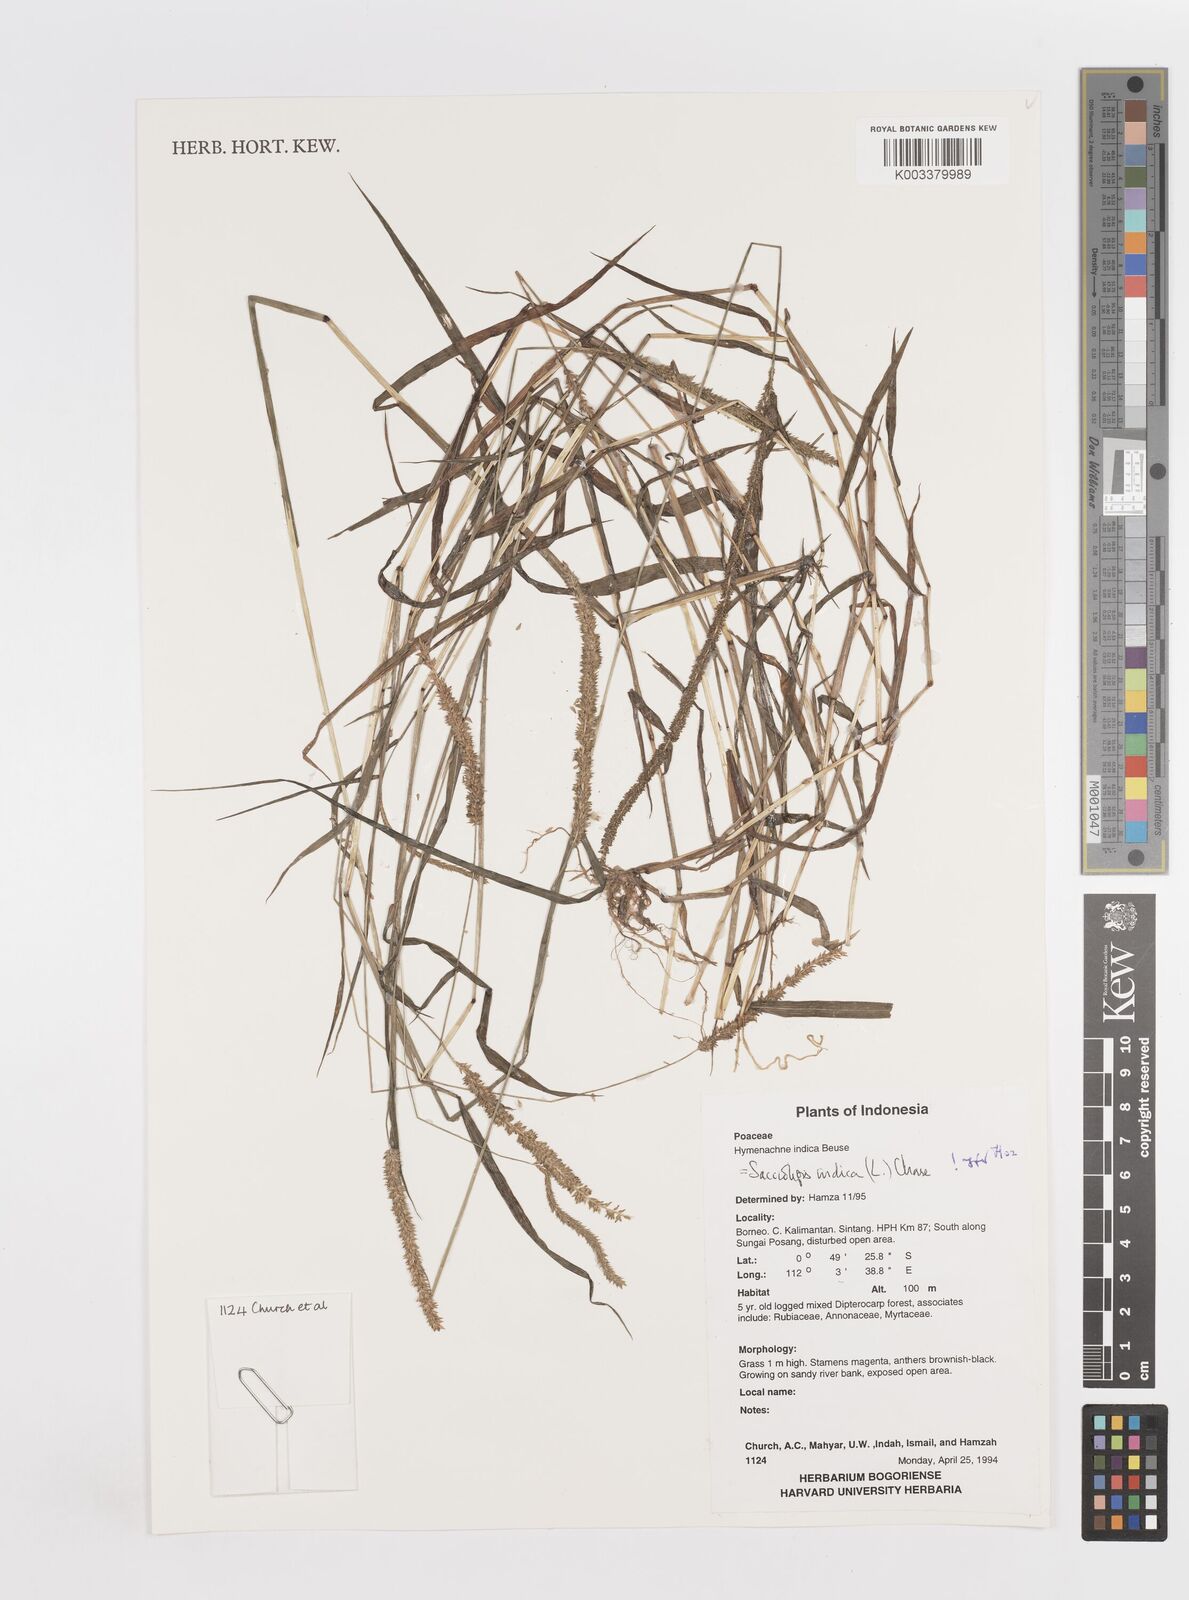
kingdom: Plantae
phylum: Tracheophyta
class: Liliopsida
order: Poales
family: Poaceae
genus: Sacciolepis
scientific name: Sacciolepis indica
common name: Glenwoodgrass
